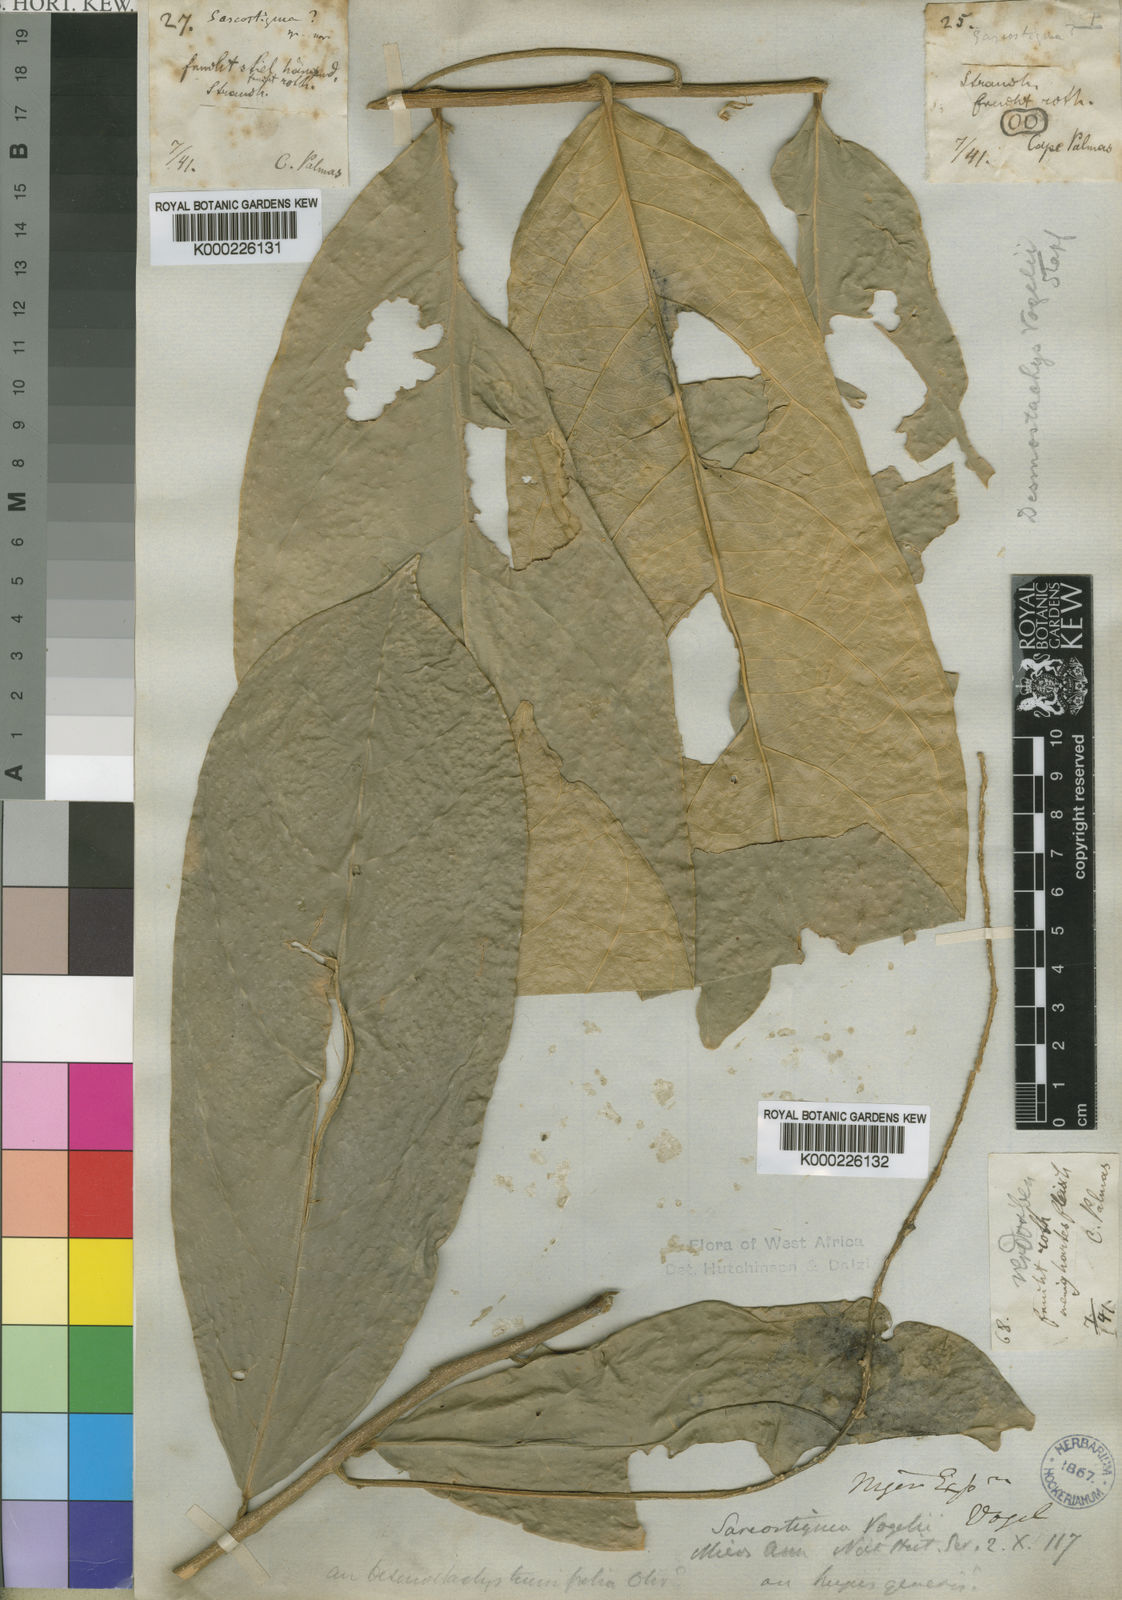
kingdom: Plantae
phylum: Tracheophyta
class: Magnoliopsida
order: Icacinales
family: Icacinaceae
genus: Vadensea
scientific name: Vadensea vogelii
